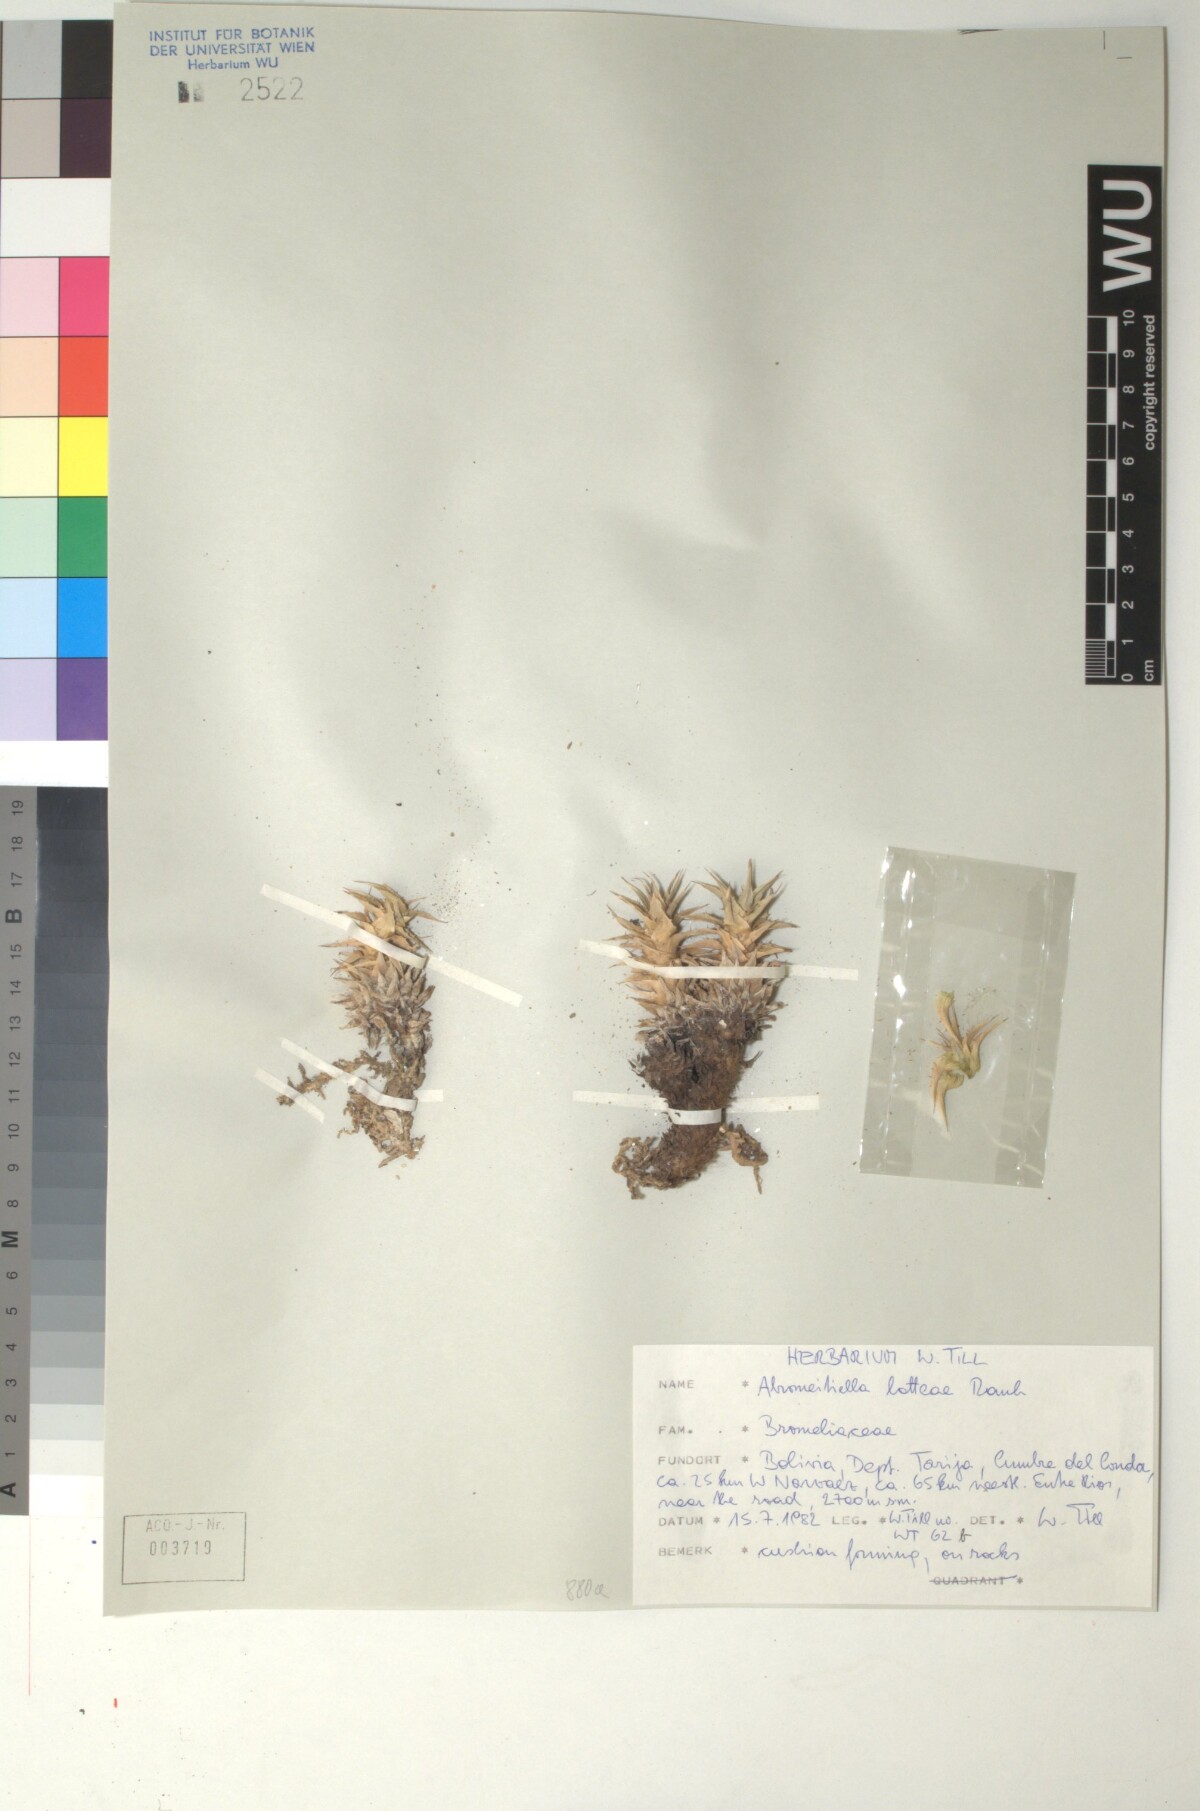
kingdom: Plantae
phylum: Tracheophyta
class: Liliopsida
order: Poales
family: Bromeliaceae
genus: Deuterocohnia
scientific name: Deuterocohnia lotteae
